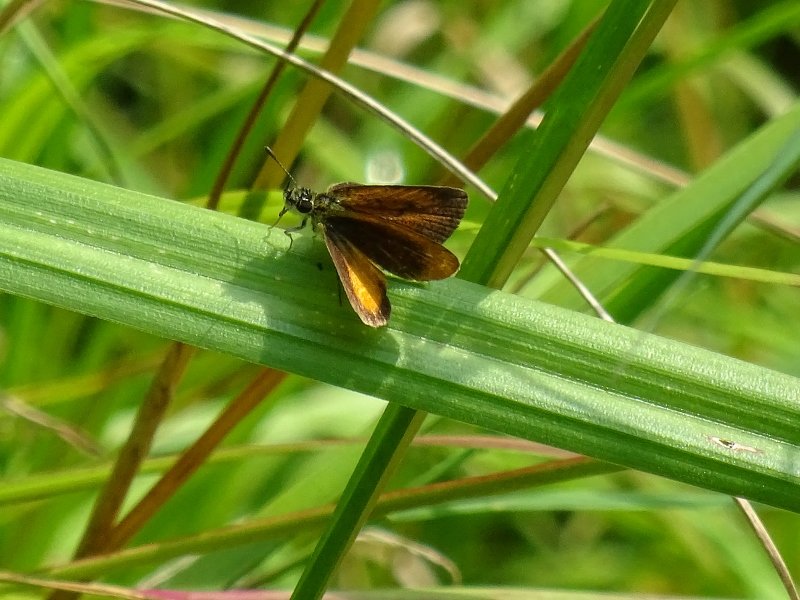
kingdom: Animalia
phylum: Arthropoda
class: Insecta
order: Lepidoptera
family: Hesperiidae
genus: Ancyloxypha
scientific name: Ancyloxypha numitor
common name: Least Skipper
